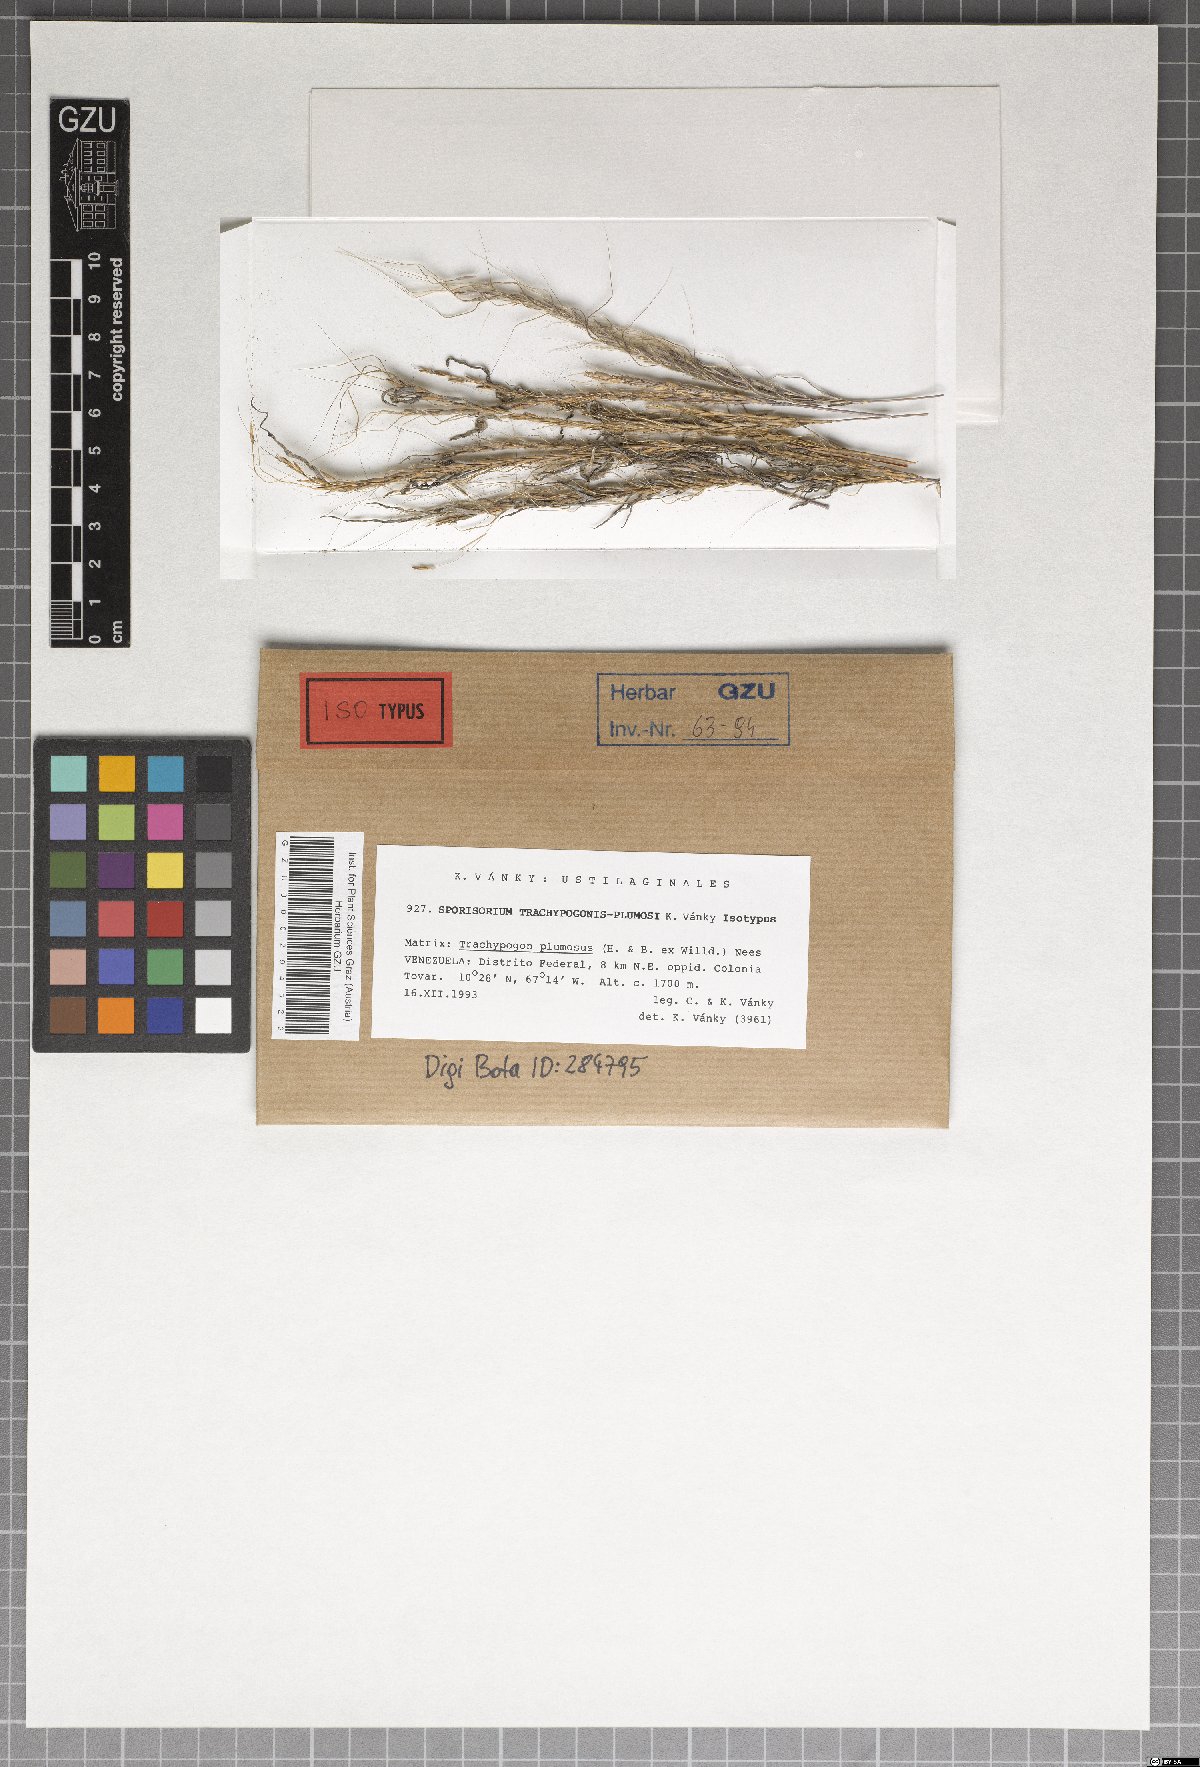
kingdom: Fungi
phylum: Basidiomycota
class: Ustilaginomycetes
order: Ustilaginales
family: Ustilaginaceae
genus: Sporisorium
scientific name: Sporisorium trachypogonis-plumosi
